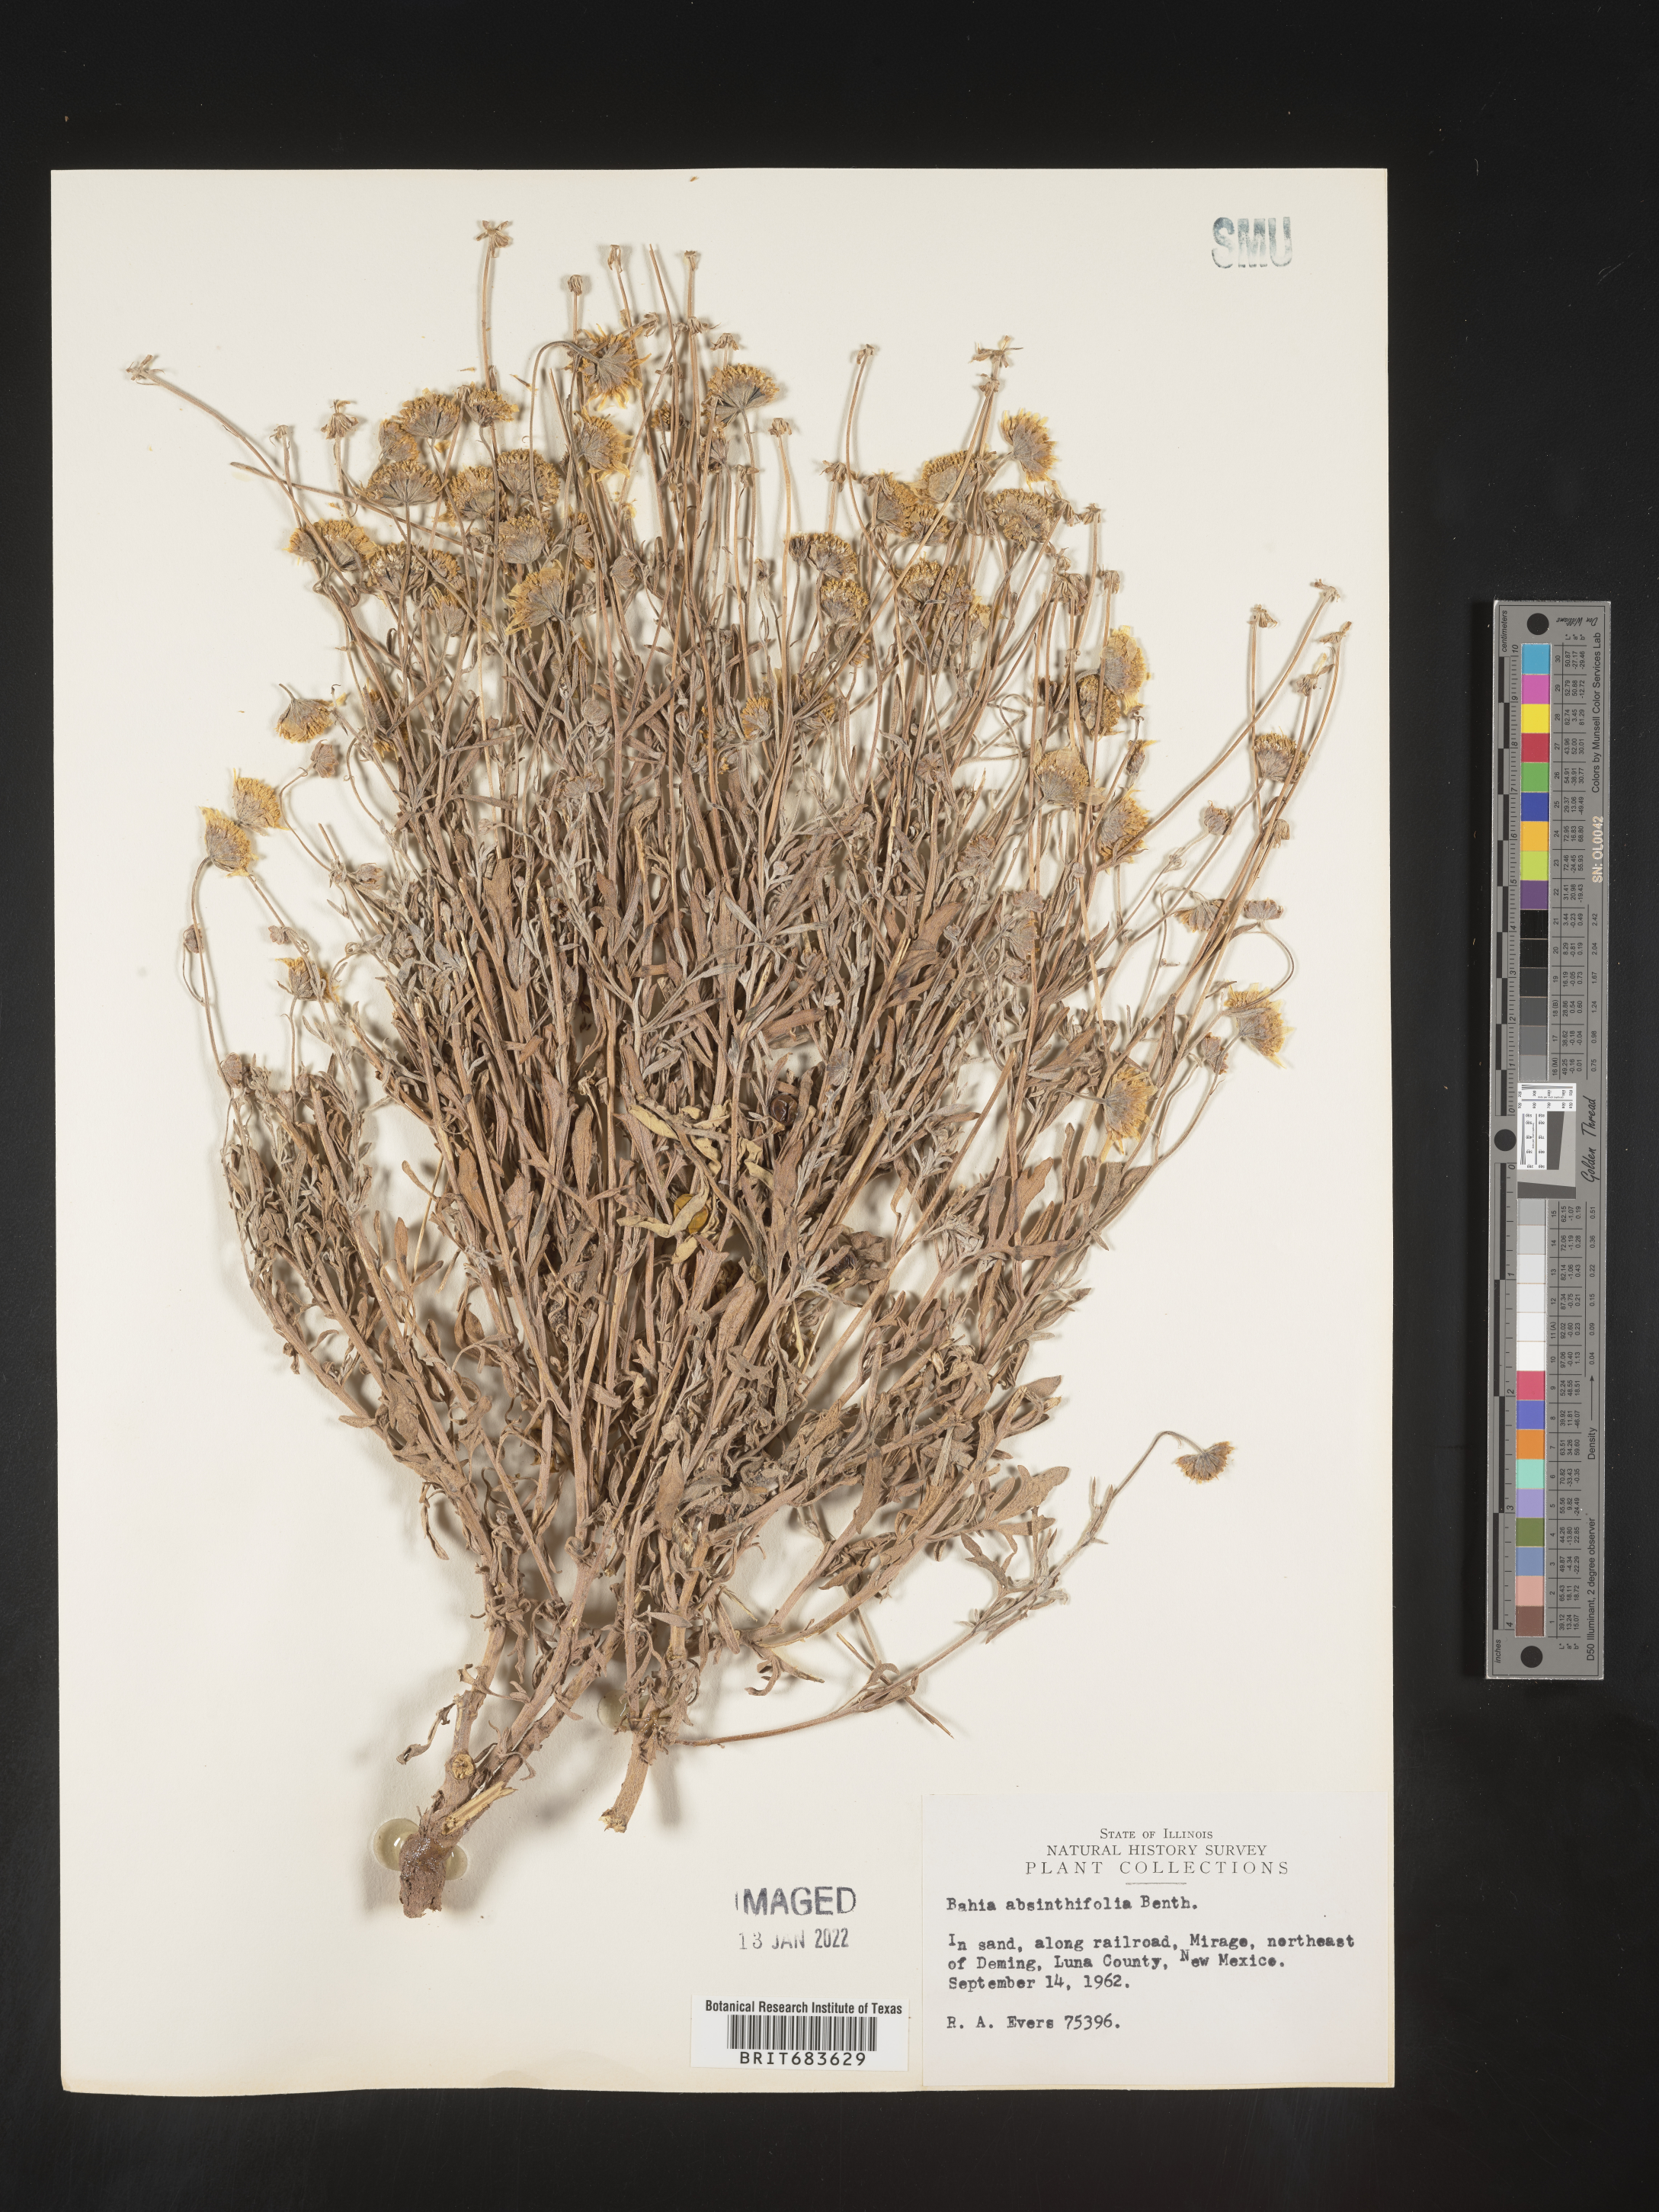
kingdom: Plantae
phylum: Tracheophyta
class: Magnoliopsida
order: Asterales
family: Asteraceae
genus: Picradeniopsis
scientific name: Picradeniopsis absinthifolia
